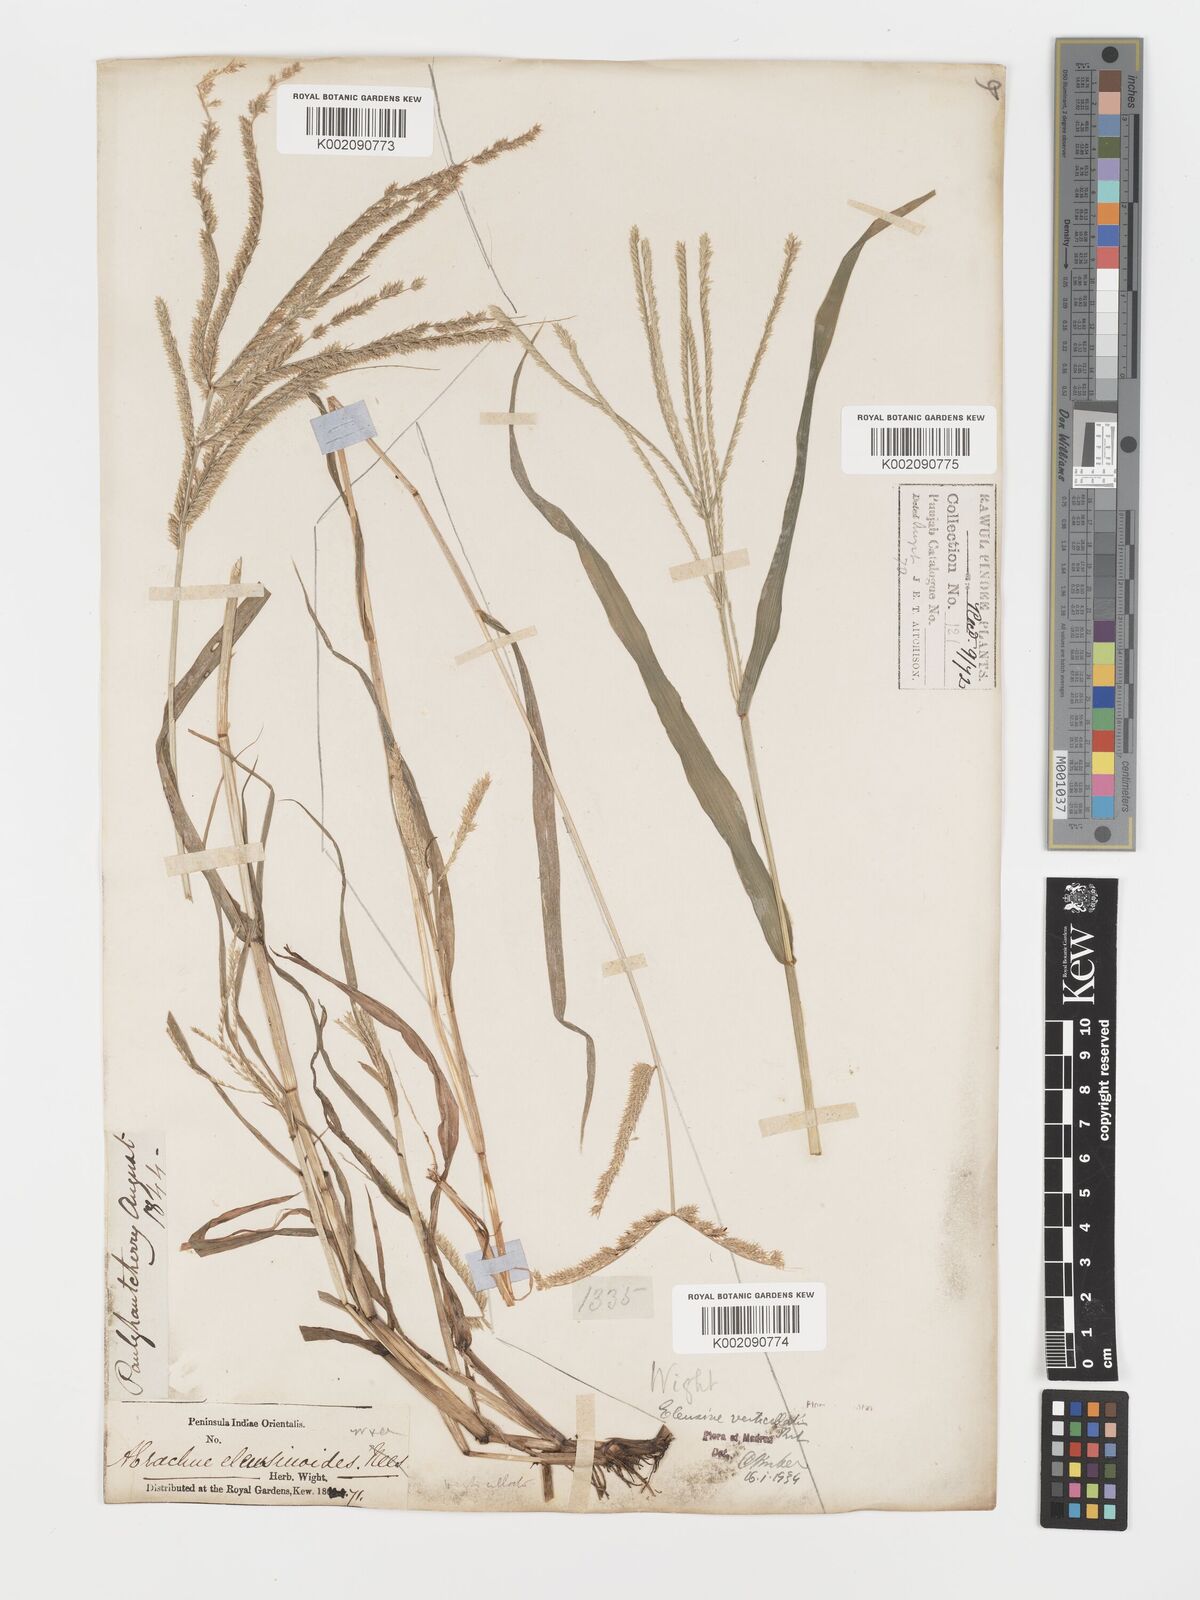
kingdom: Plantae
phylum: Tracheophyta
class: Liliopsida
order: Poales
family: Poaceae
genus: Acrachne
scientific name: Acrachne racemosa
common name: Goosegrass
